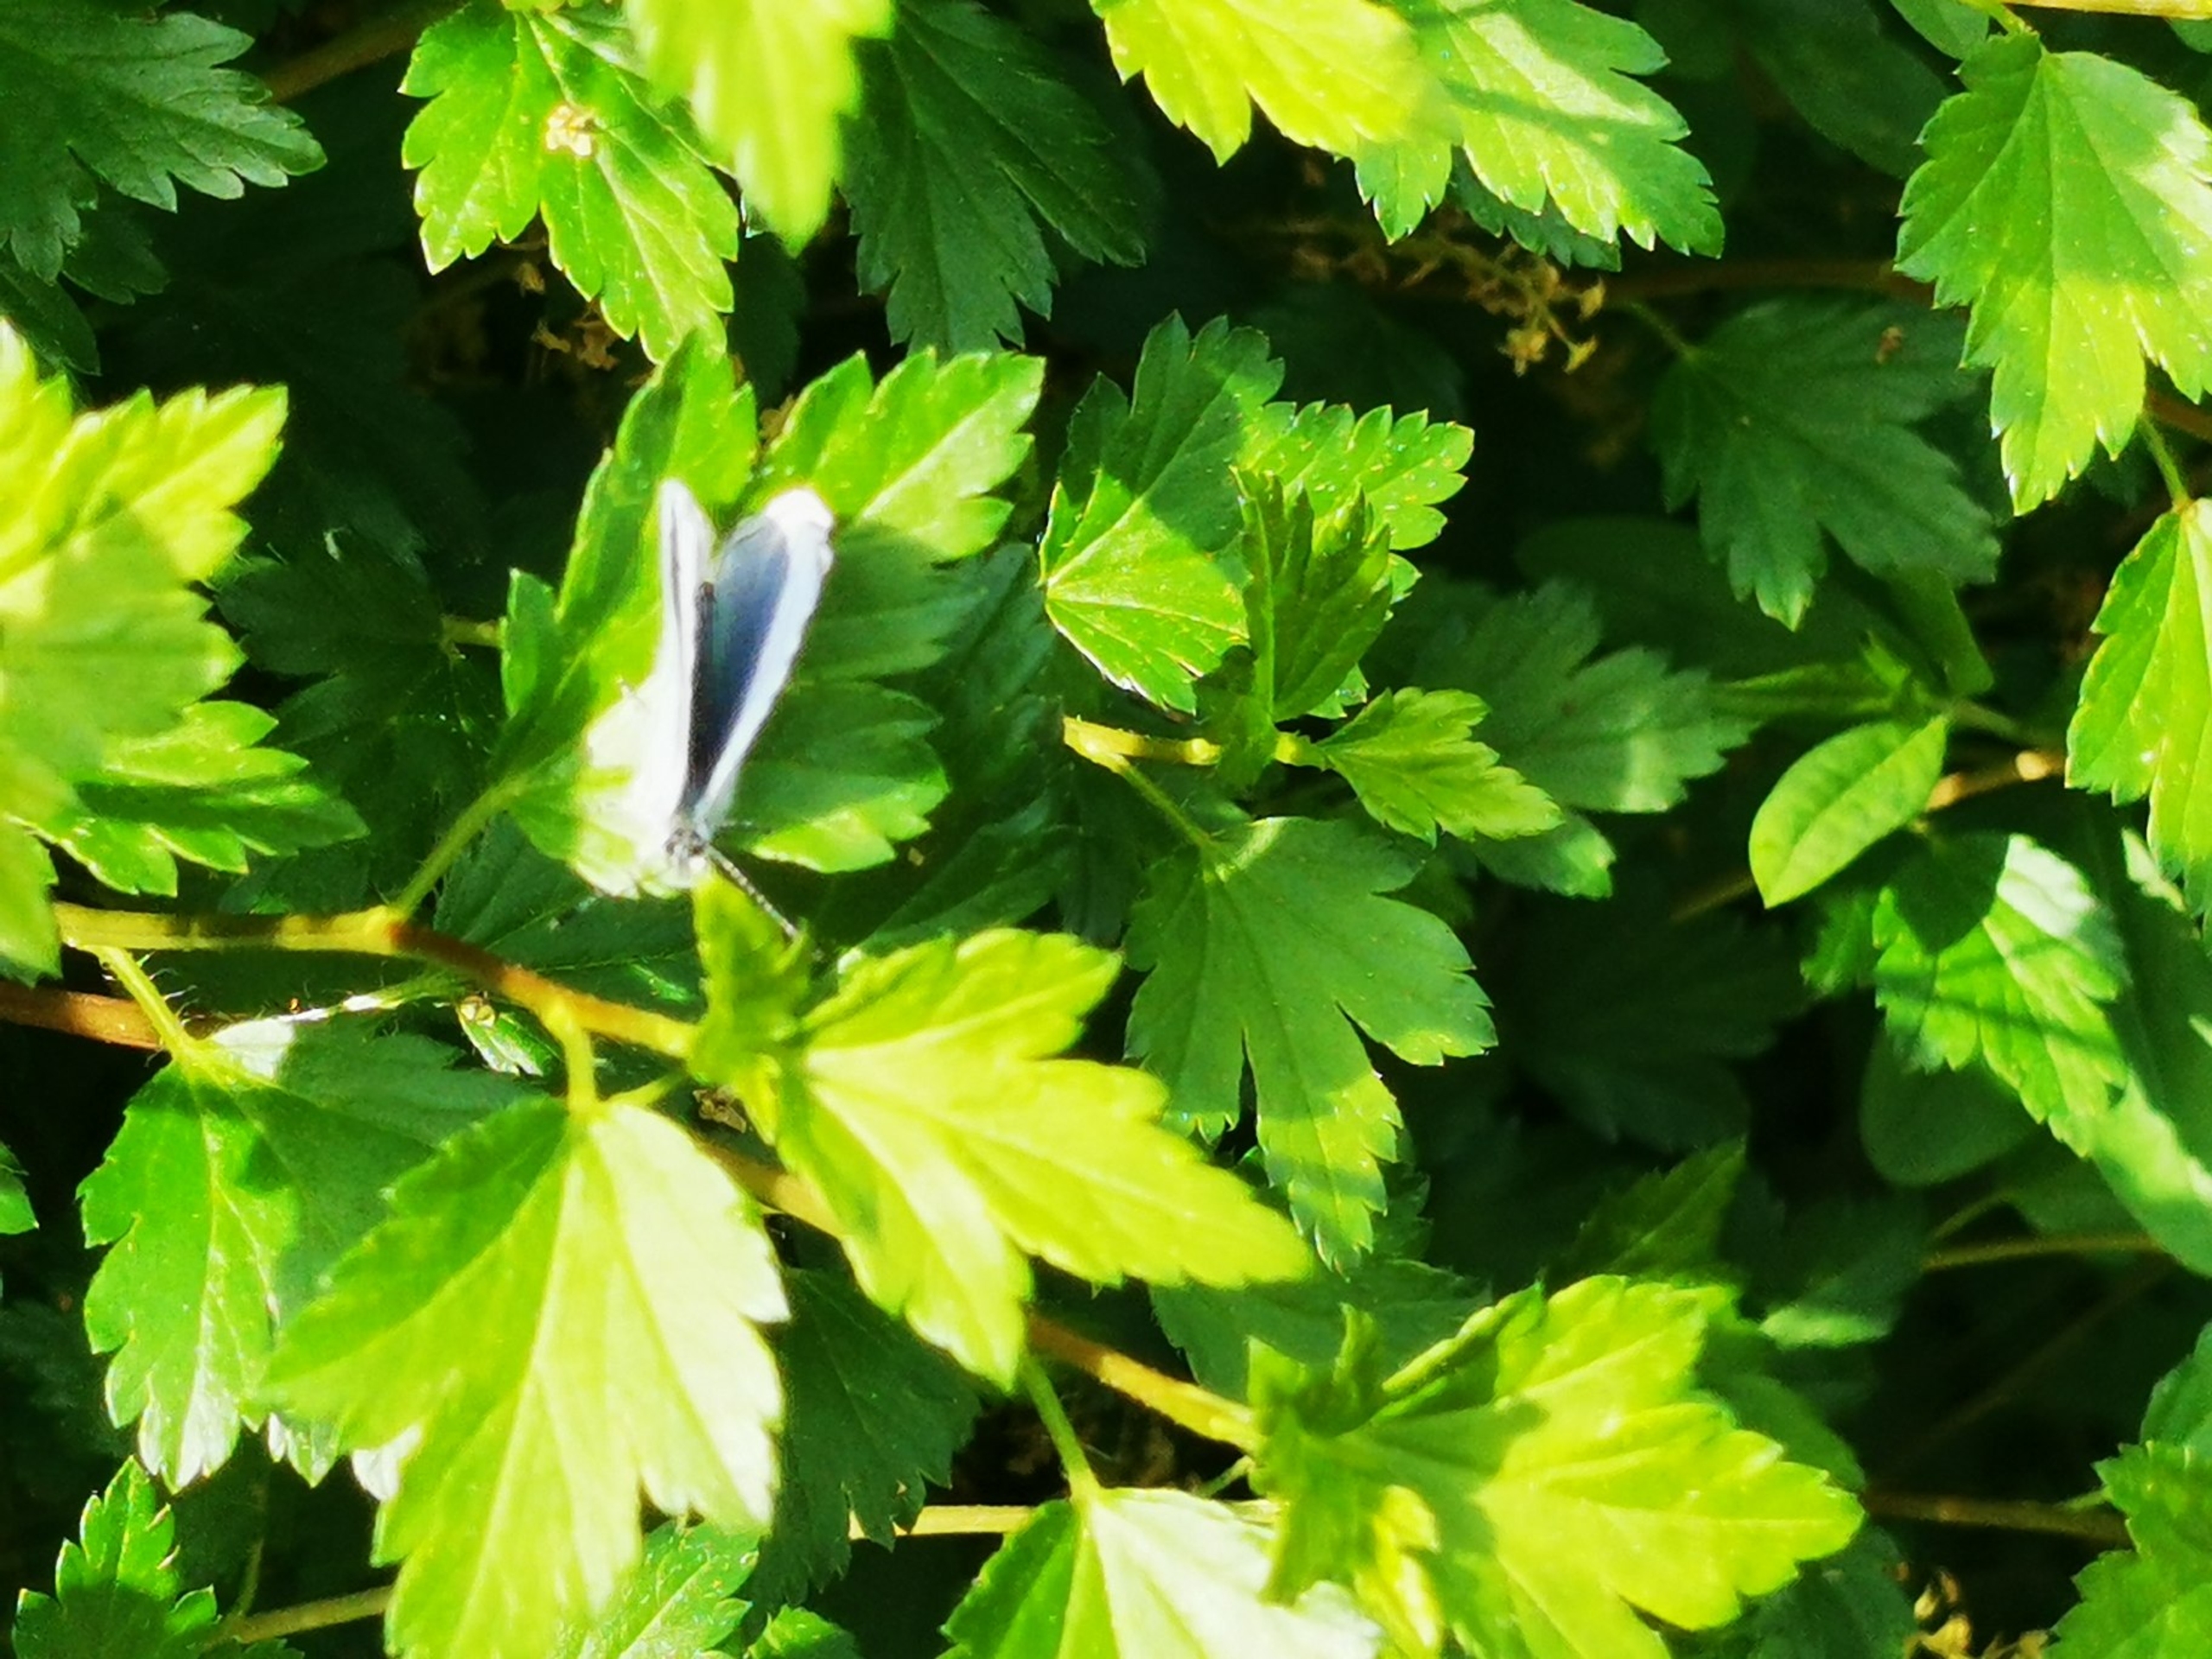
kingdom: Animalia
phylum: Arthropoda
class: Insecta
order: Lepidoptera
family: Lycaenidae
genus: Celastrina
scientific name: Celastrina argiolus
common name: Skovblåfugl
